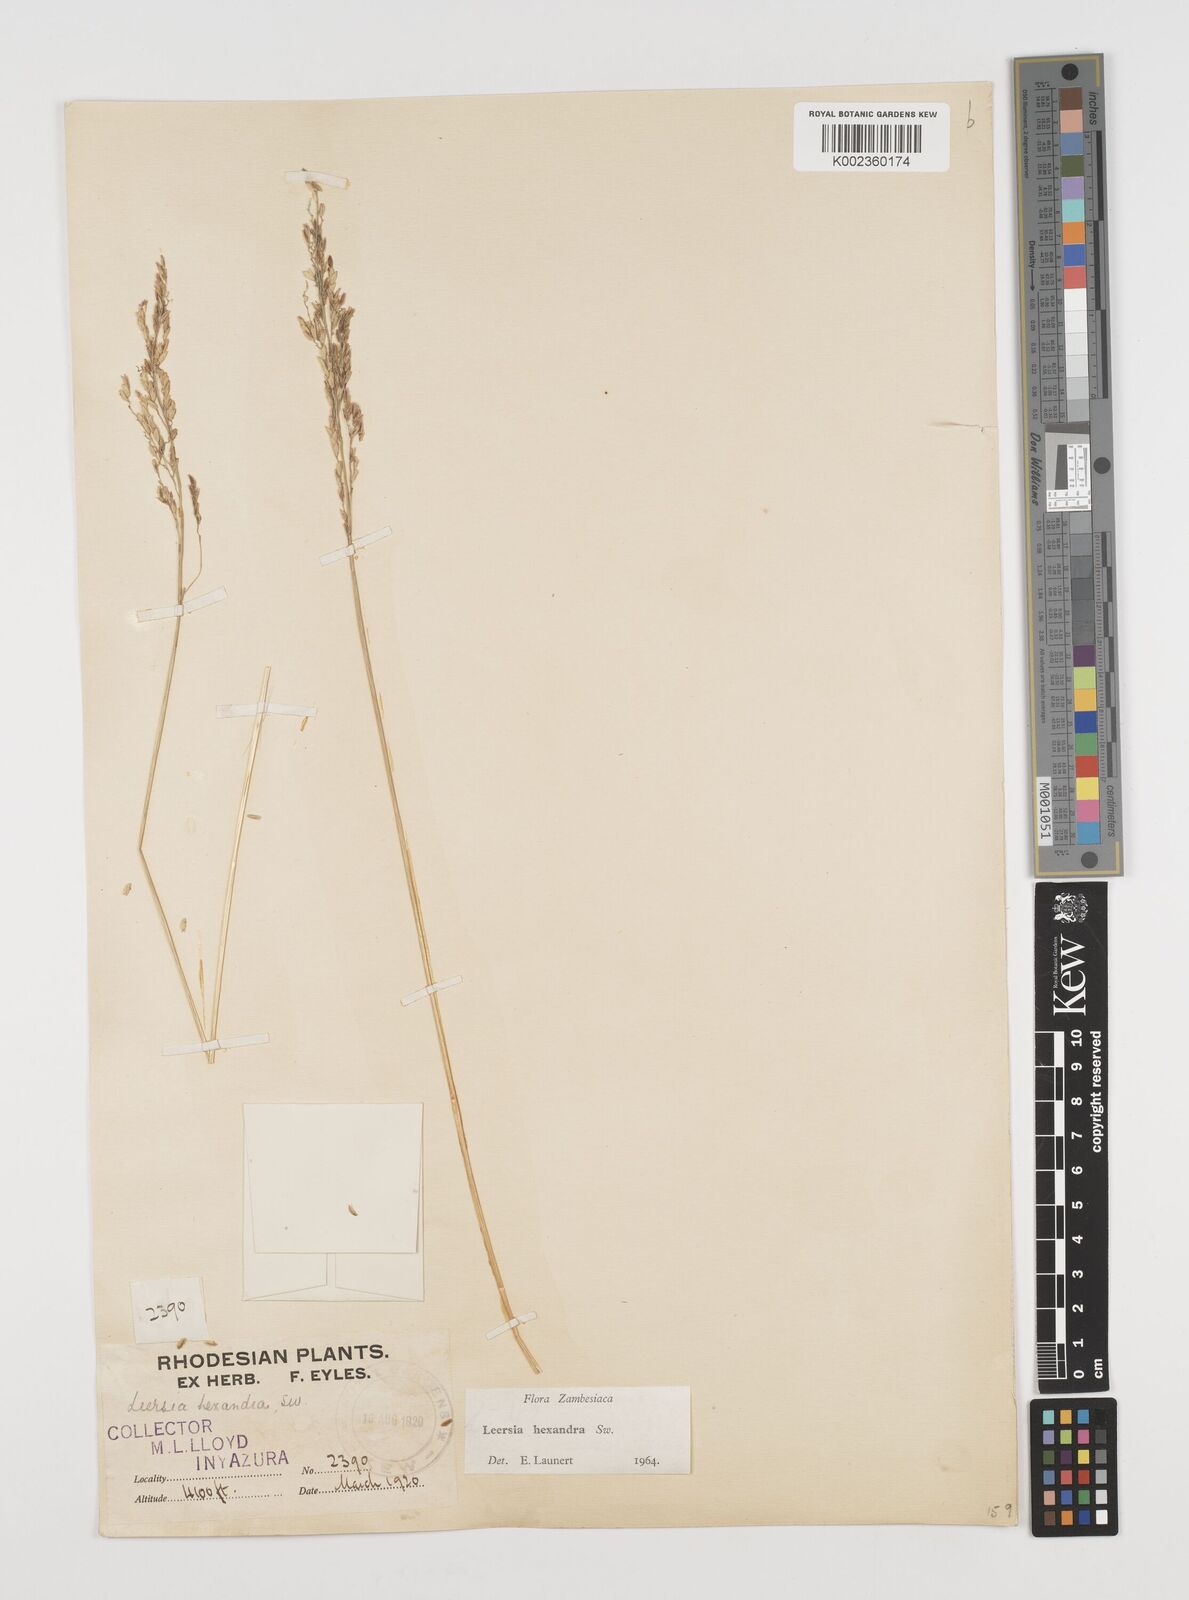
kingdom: Plantae
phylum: Tracheophyta
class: Liliopsida
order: Poales
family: Poaceae
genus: Leersia
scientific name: Leersia hexandra
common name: Southern cut grass
